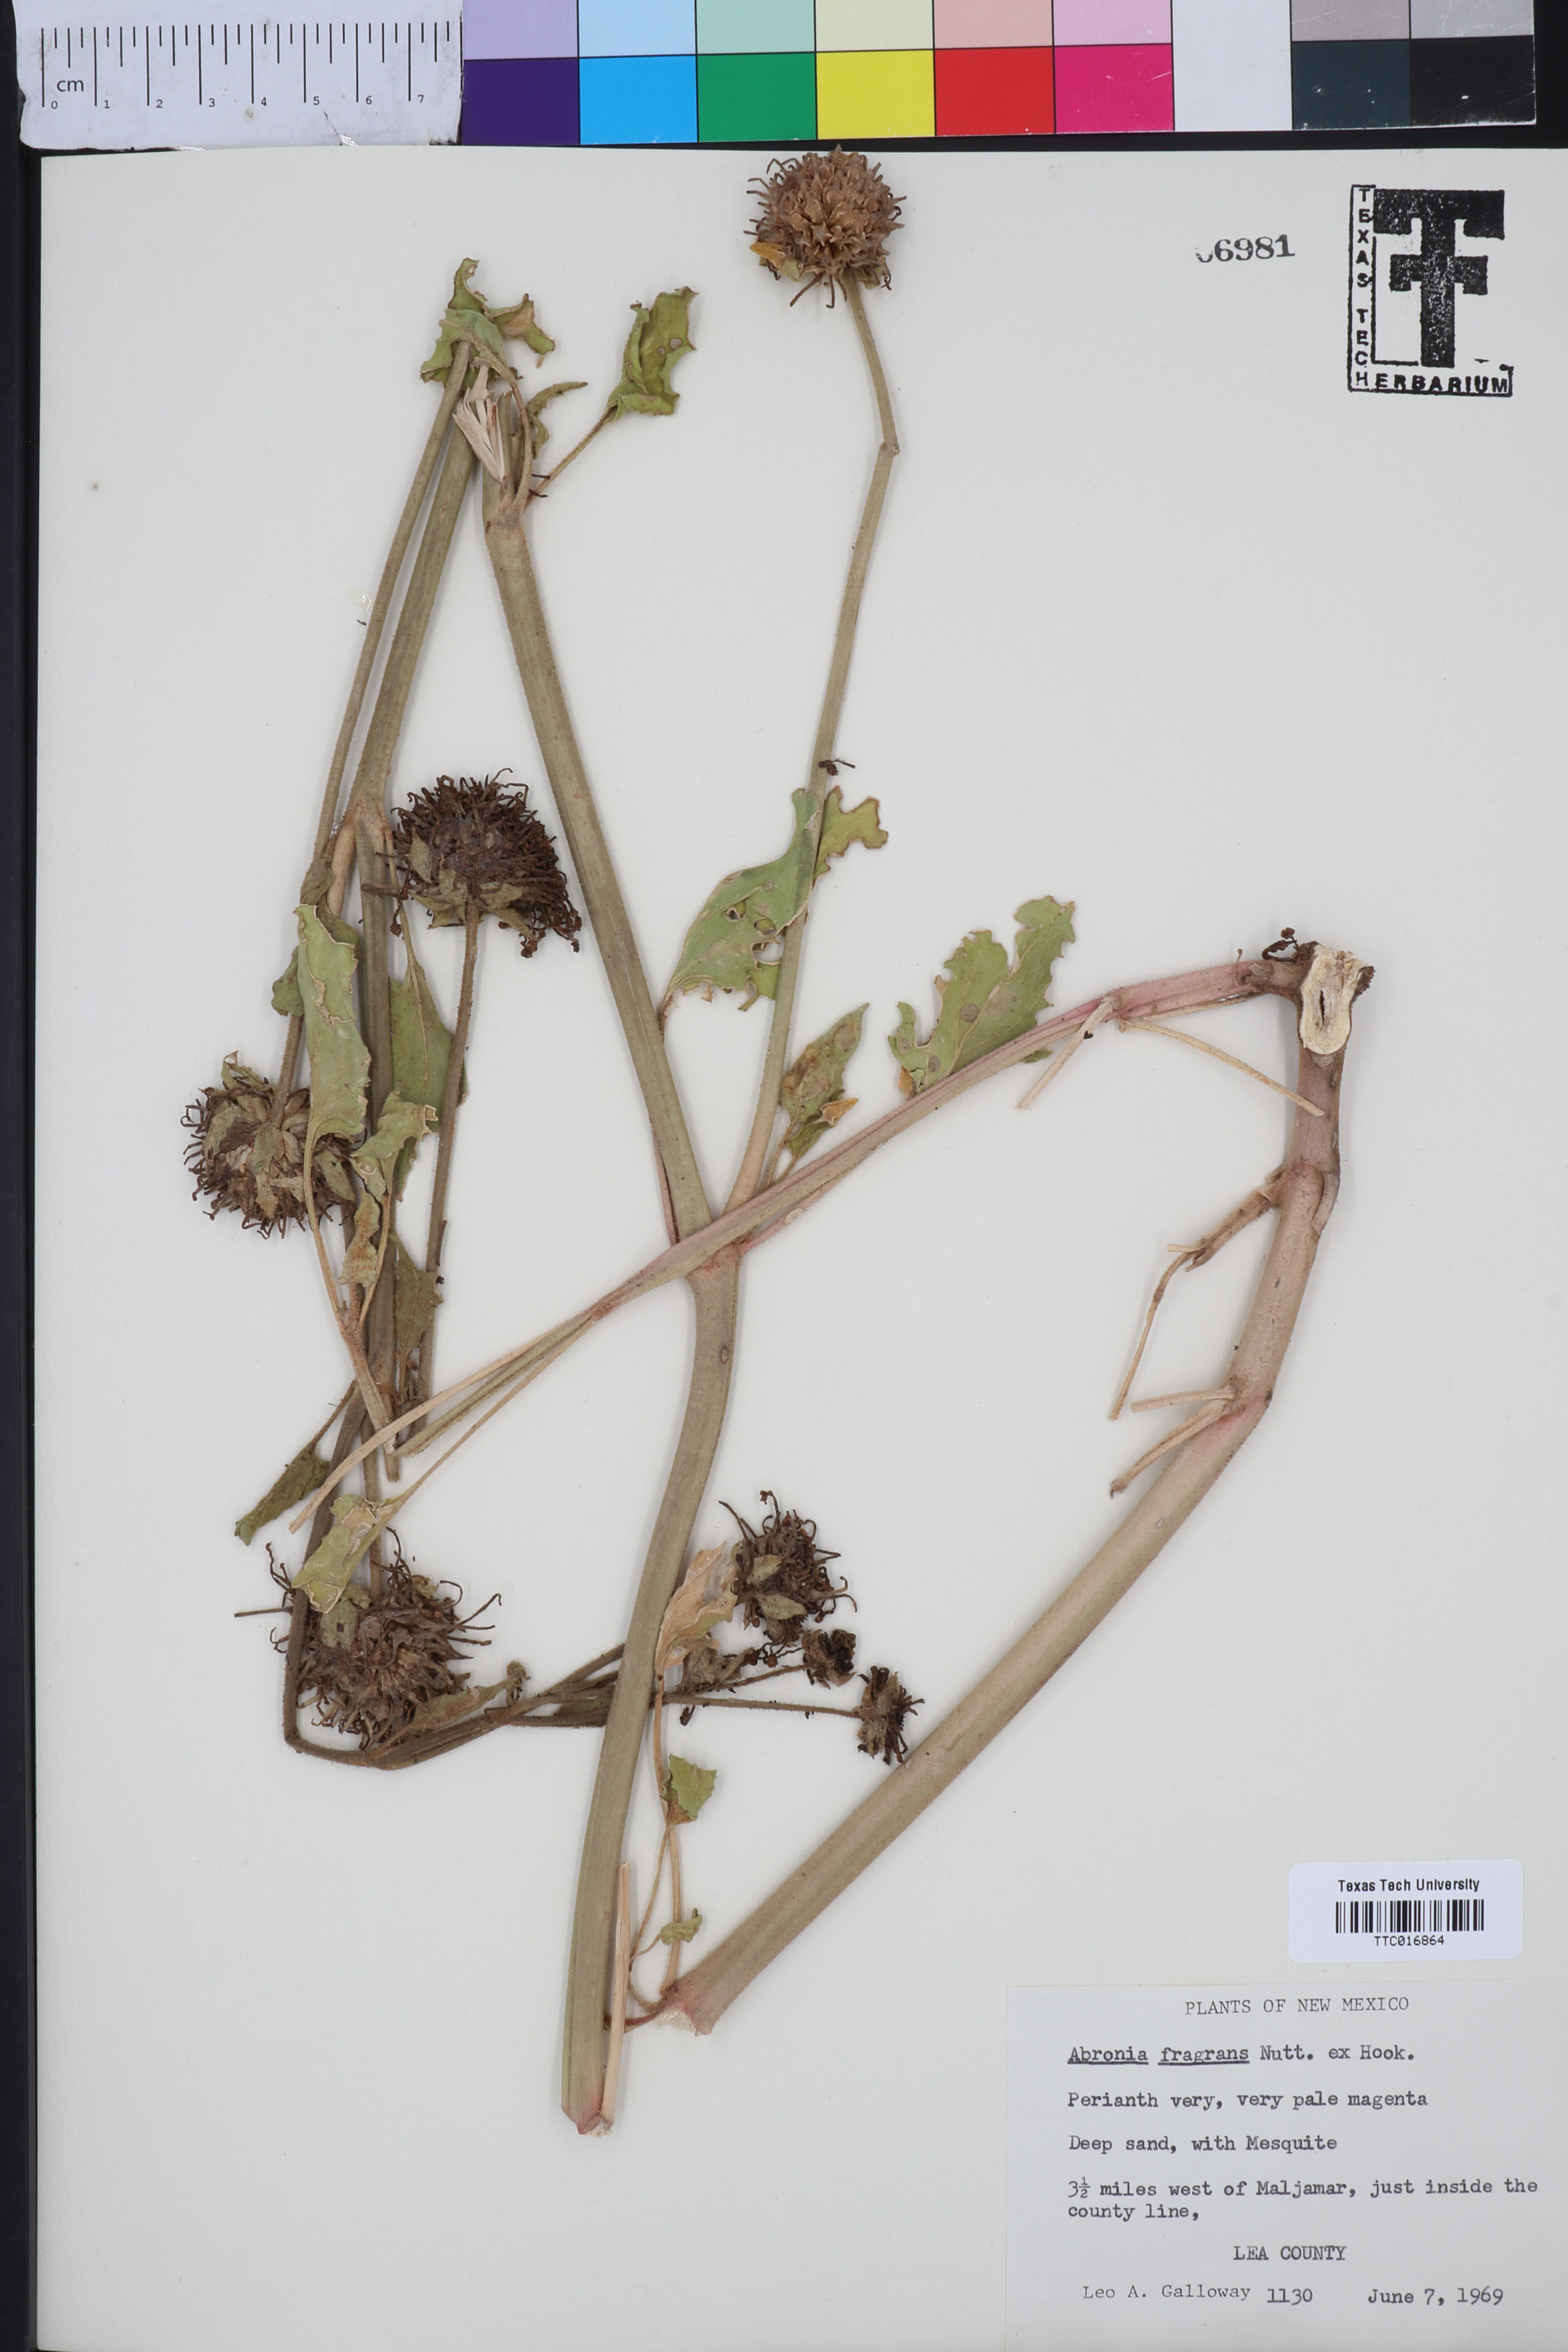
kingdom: Plantae
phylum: Tracheophyta
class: Magnoliopsida
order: Caryophyllales
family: Nyctaginaceae
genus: Abronia
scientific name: Abronia fragrans
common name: Fragrant sand-verbena
